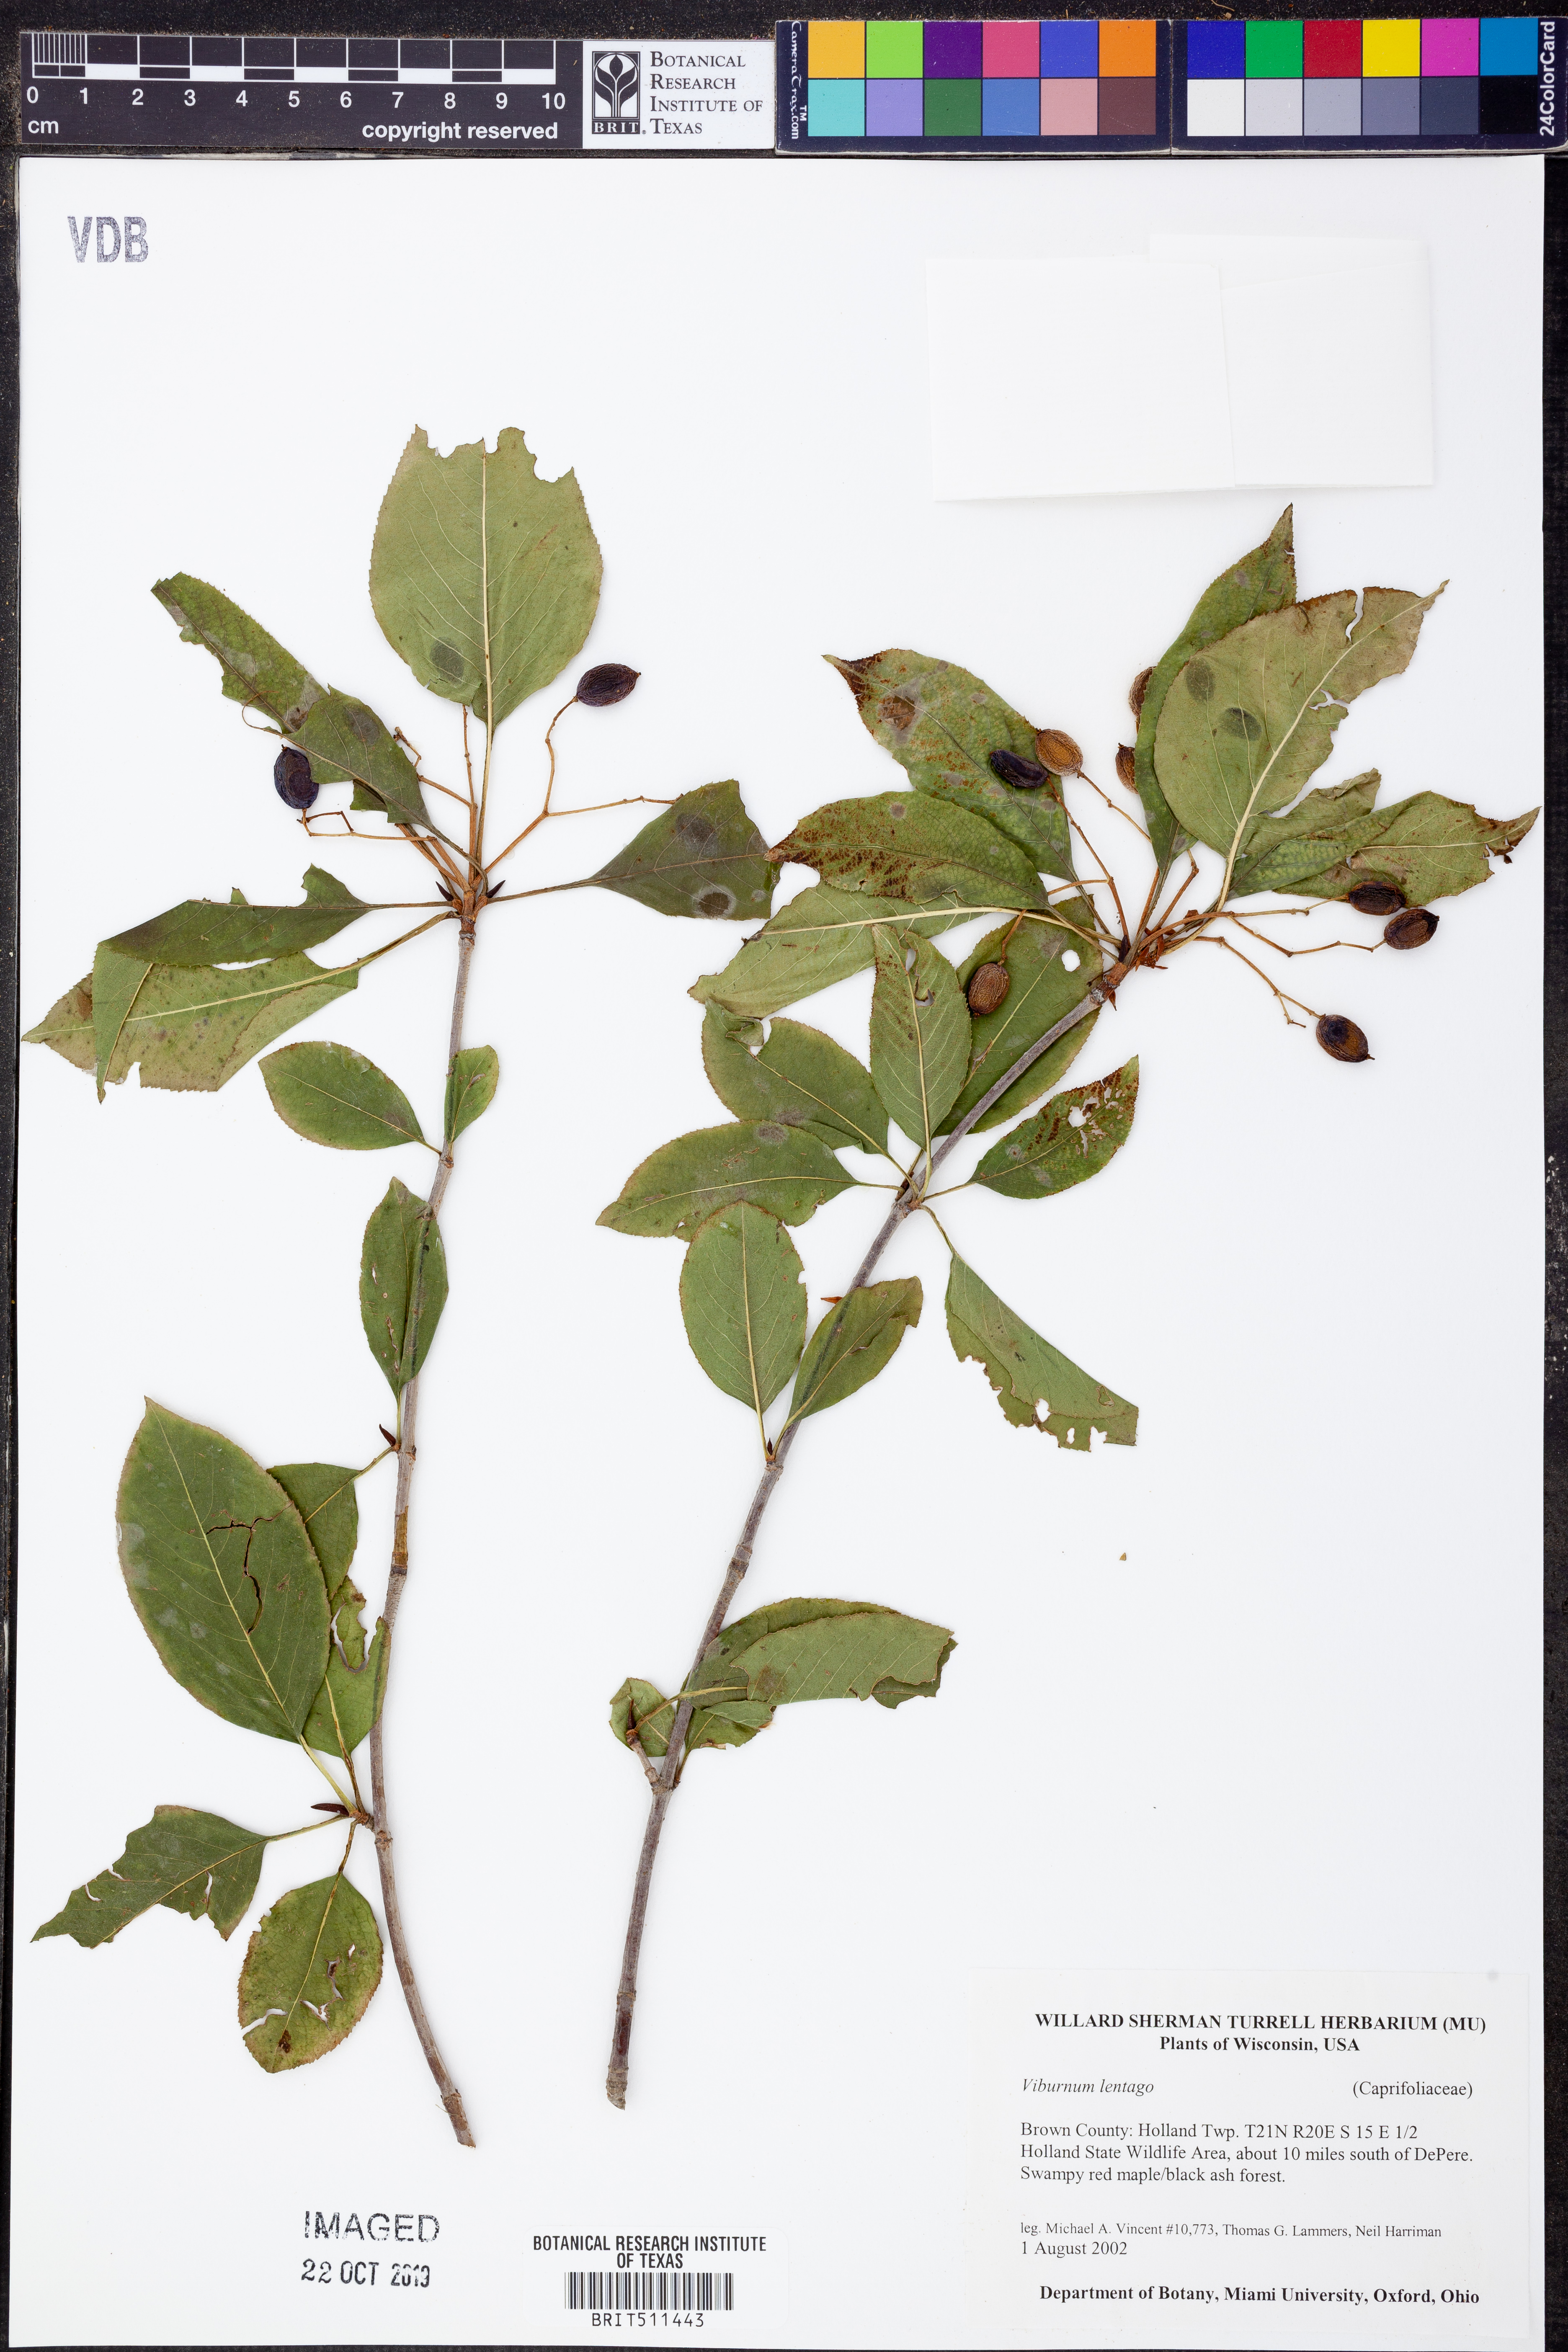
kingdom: Plantae
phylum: Tracheophyta
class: Magnoliopsida
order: Dipsacales
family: Viburnaceae
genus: Viburnum
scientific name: Viburnum lentago
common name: Black haw
